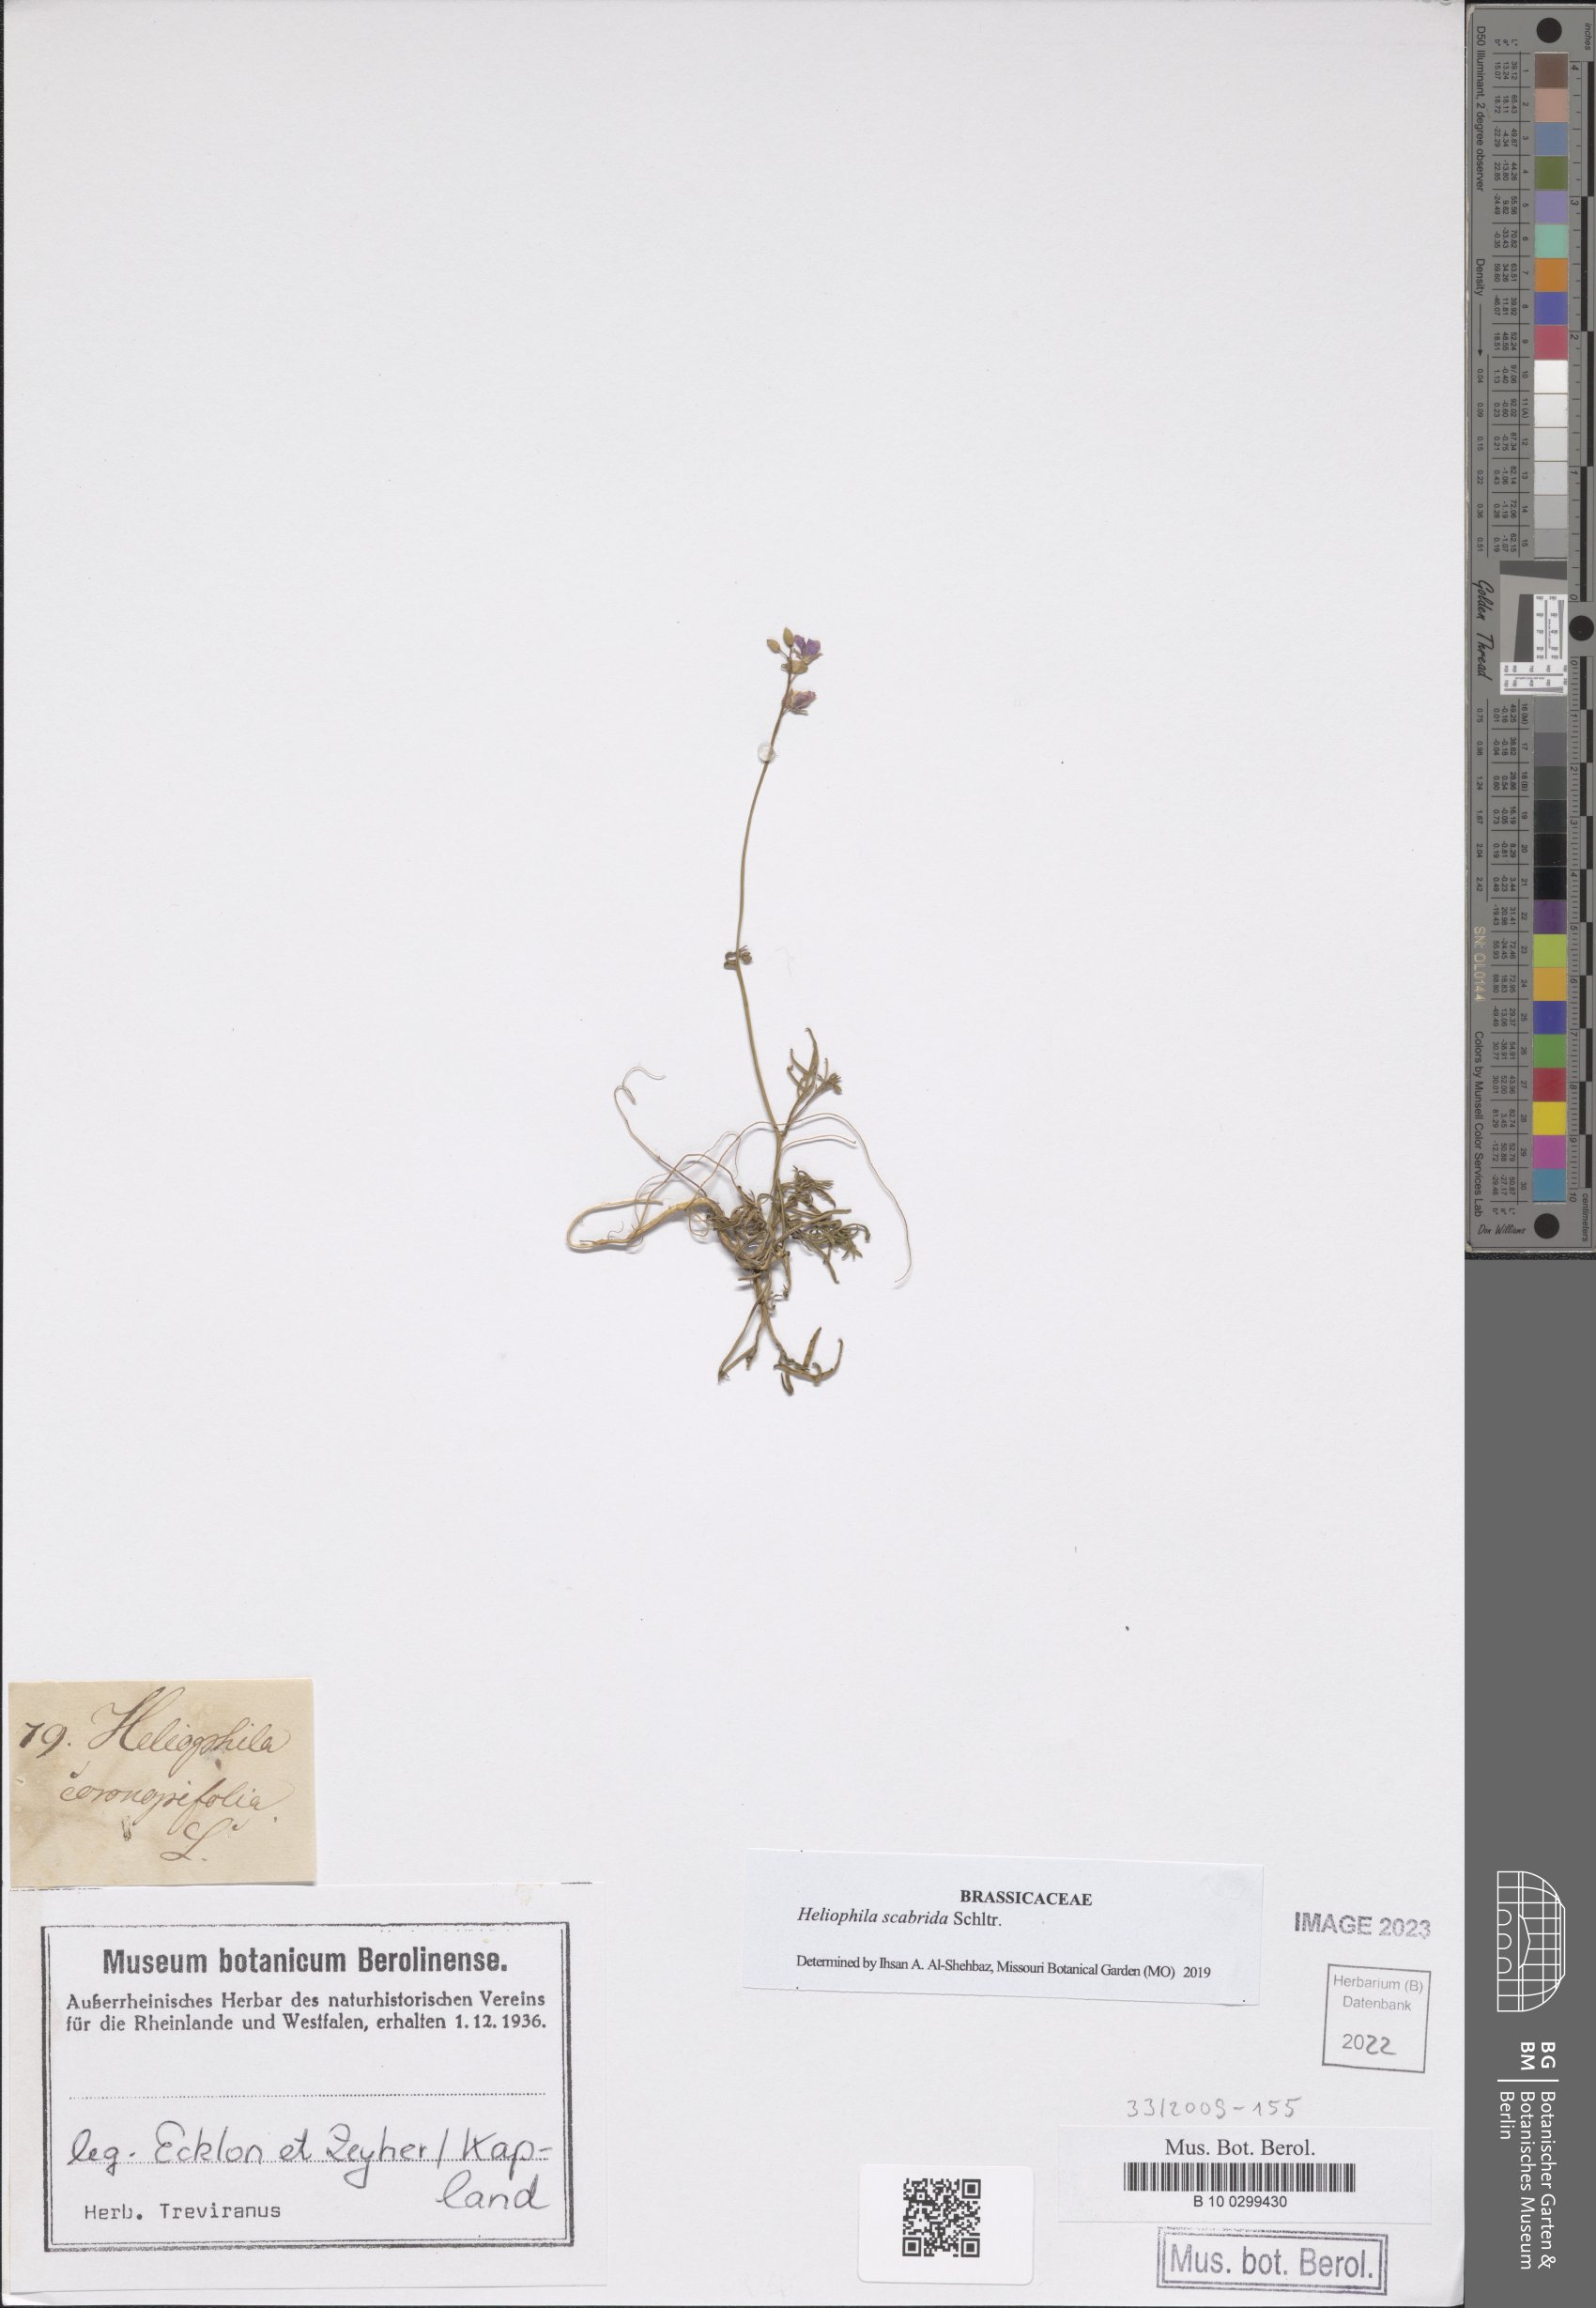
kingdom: Plantae
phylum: Tracheophyta
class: Magnoliopsida
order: Brassicales
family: Brassicaceae
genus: Heliophila
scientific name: Heliophila concatenata
